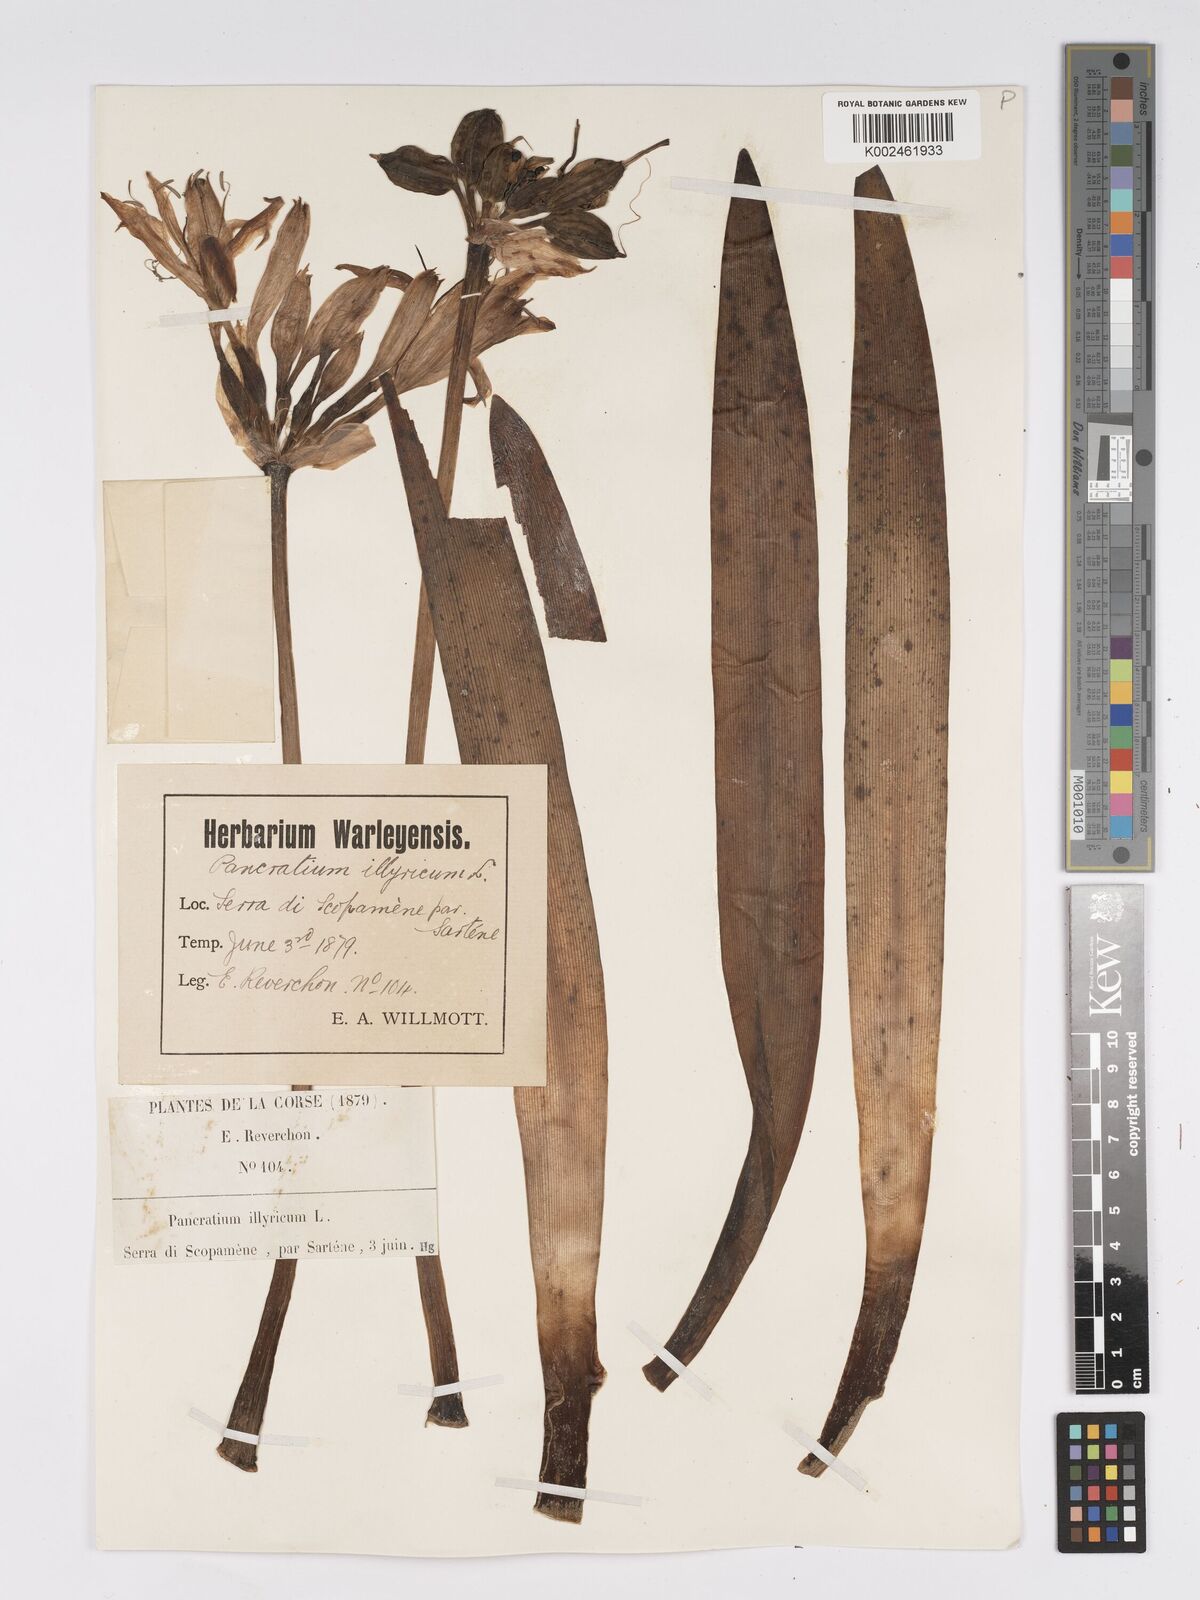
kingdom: Plantae
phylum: Tracheophyta
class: Liliopsida
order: Asparagales
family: Amaryllidaceae
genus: Pancratium
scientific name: Pancratium illyricum
